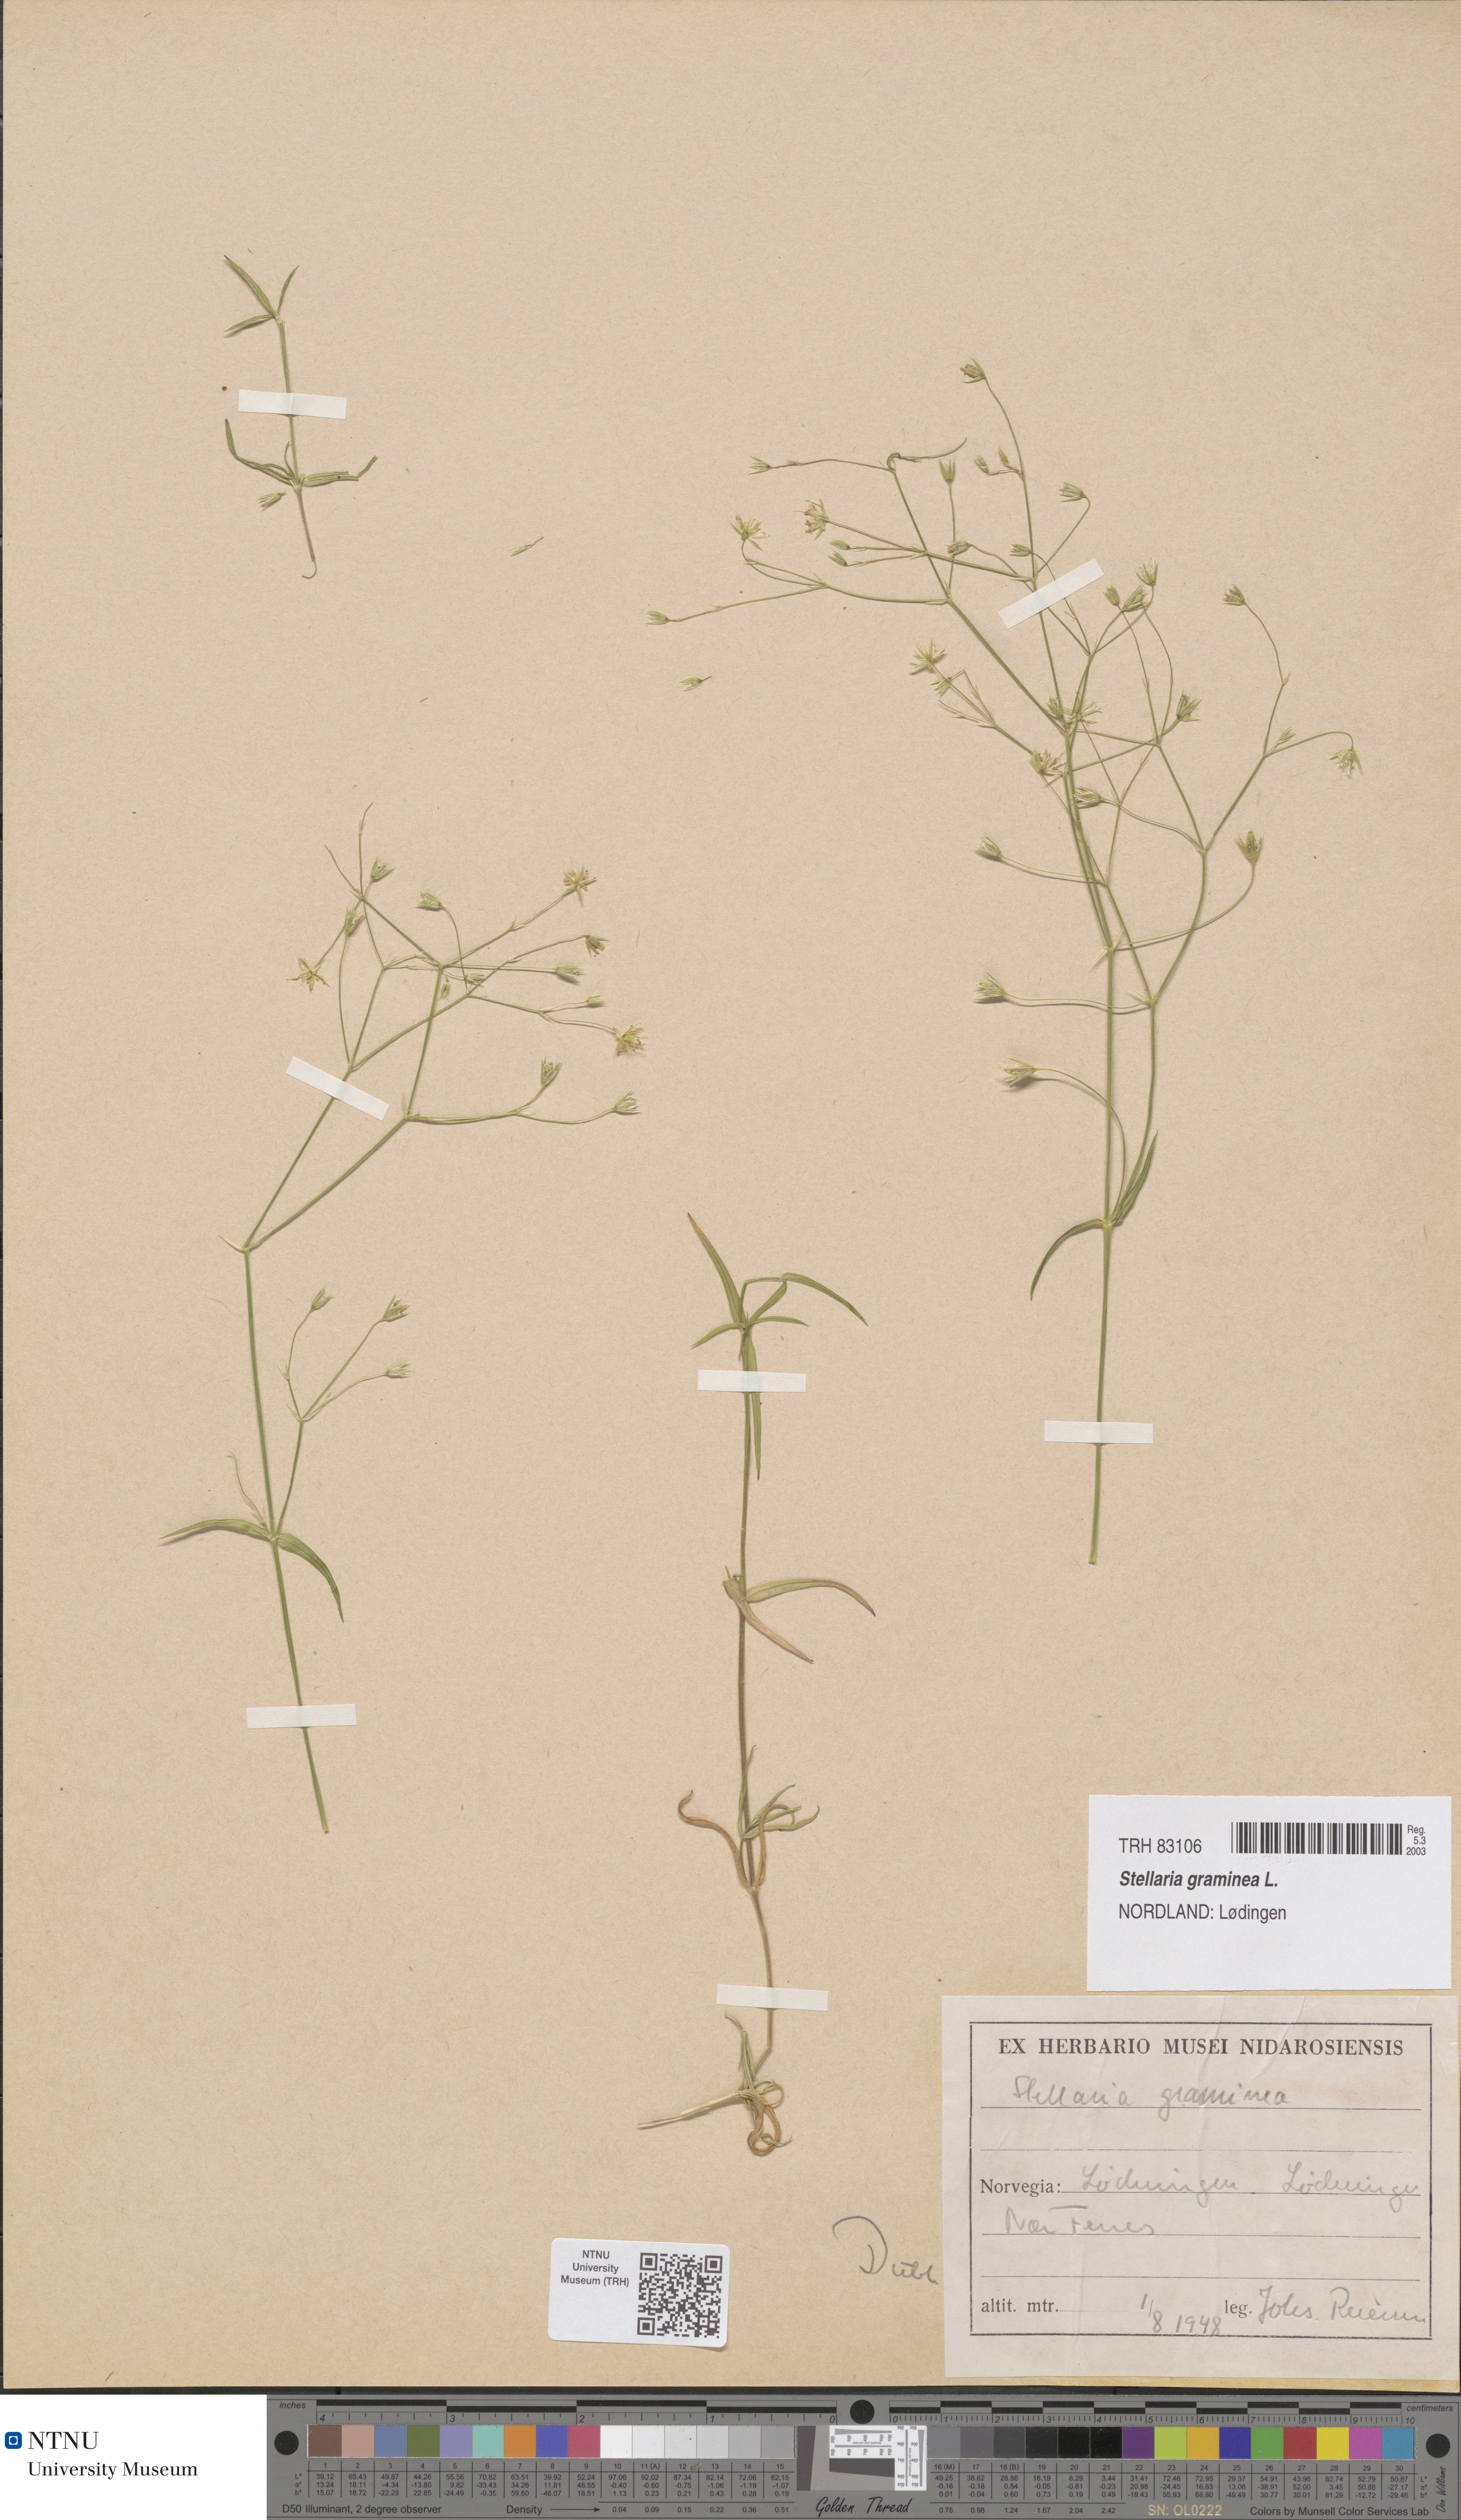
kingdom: Plantae
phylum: Tracheophyta
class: Magnoliopsida
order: Caryophyllales
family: Caryophyllaceae
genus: Stellaria
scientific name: Stellaria graminea
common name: Grass-like starwort
